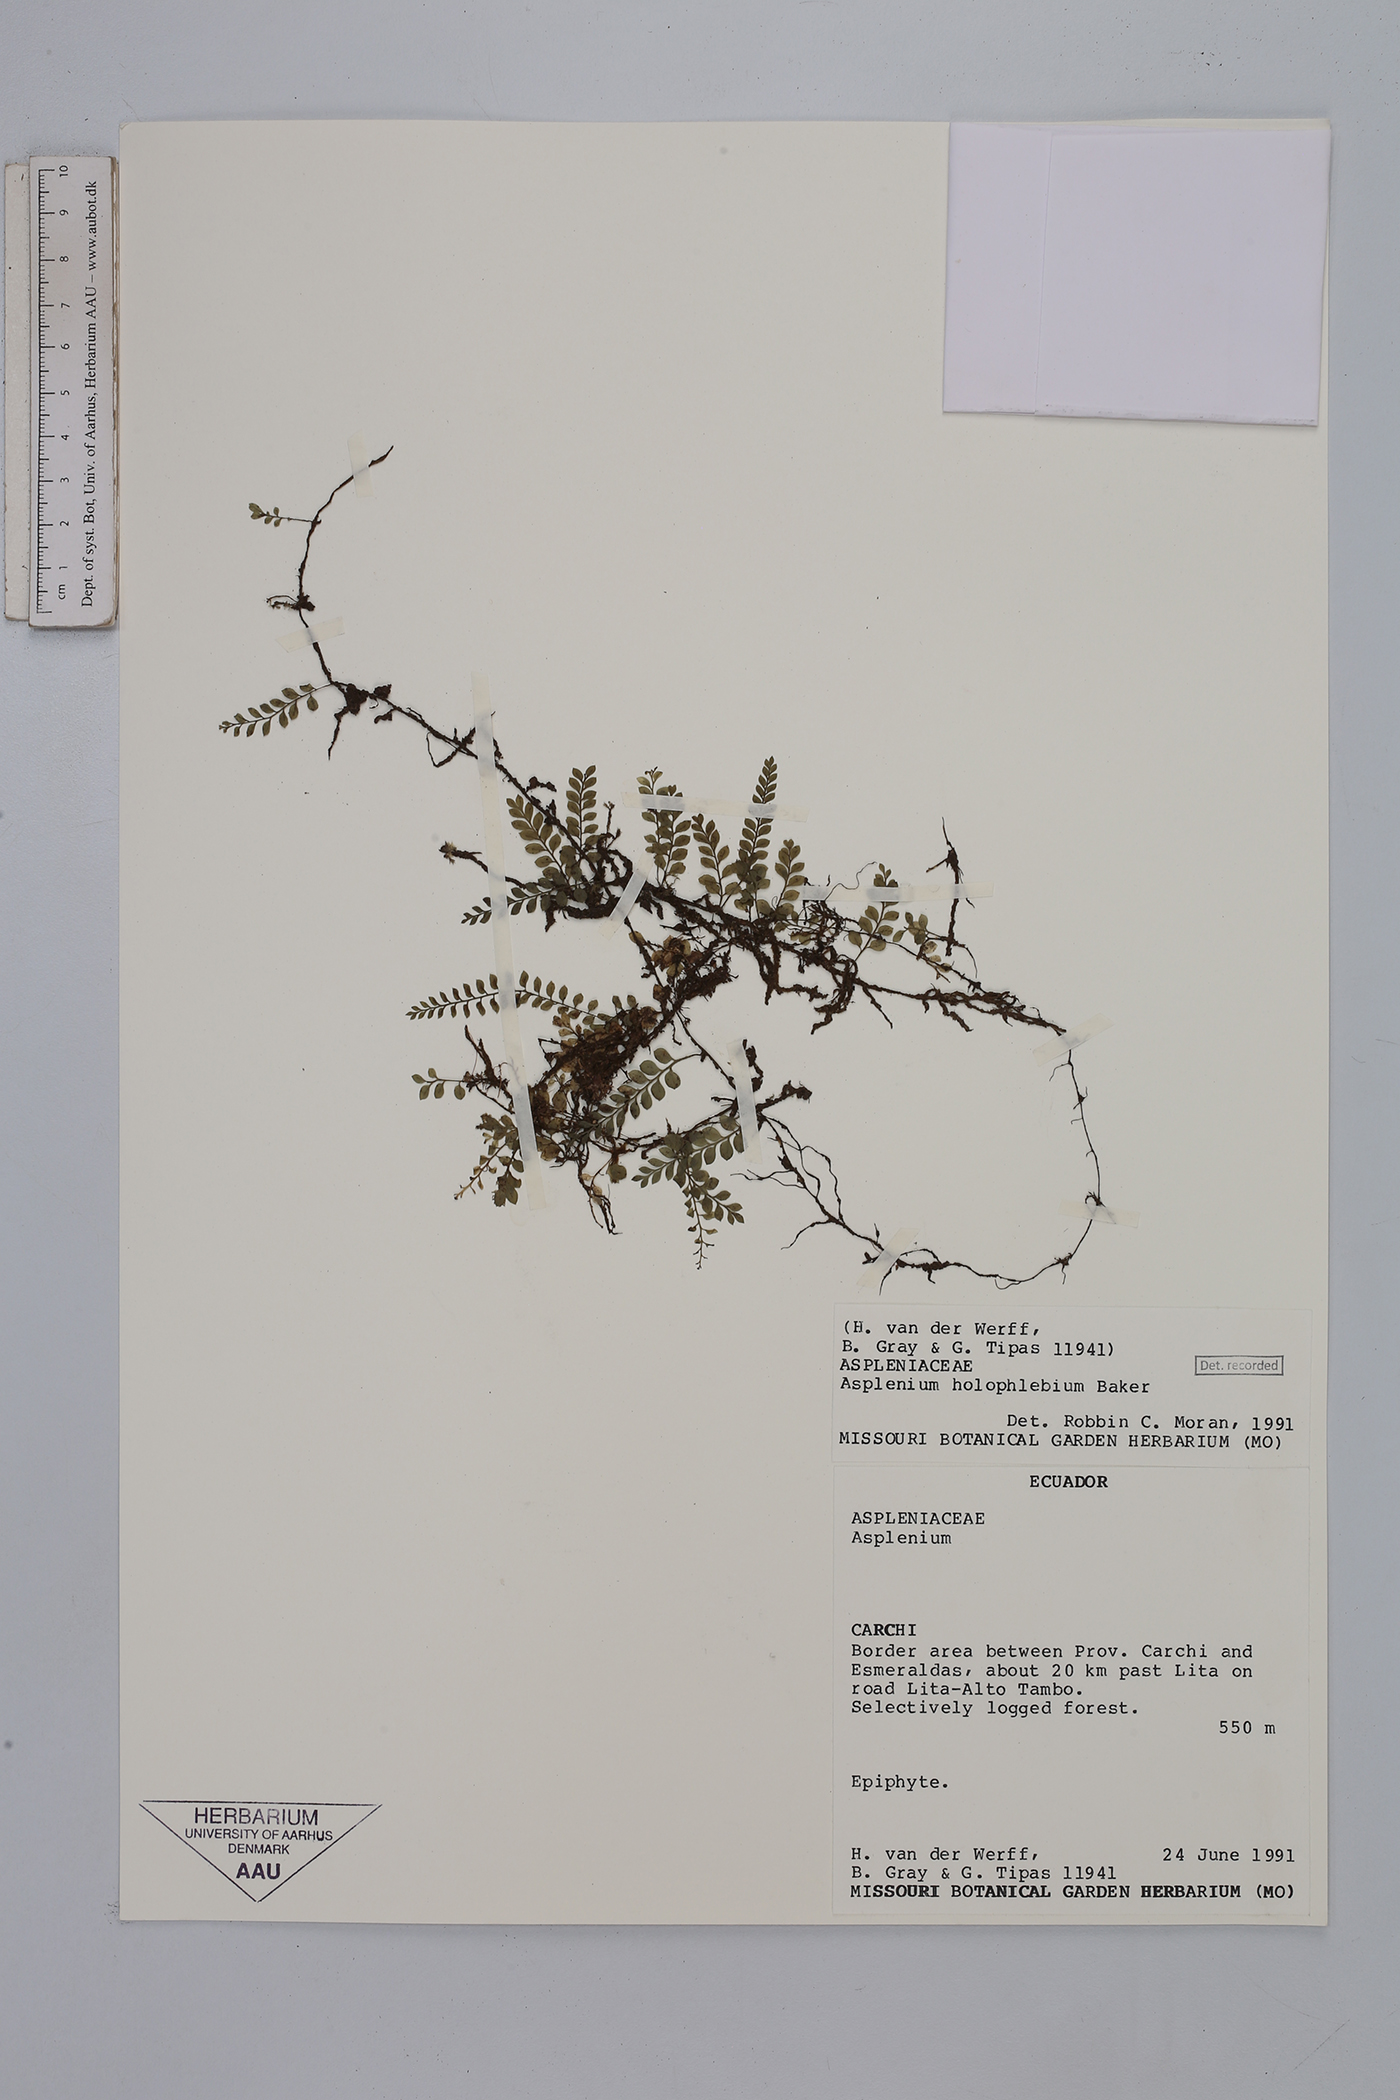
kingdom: Plantae
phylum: Tracheophyta
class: Polypodiopsida
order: Polypodiales
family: Aspleniaceae
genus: Asplenium
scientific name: Asplenium holophlebium
